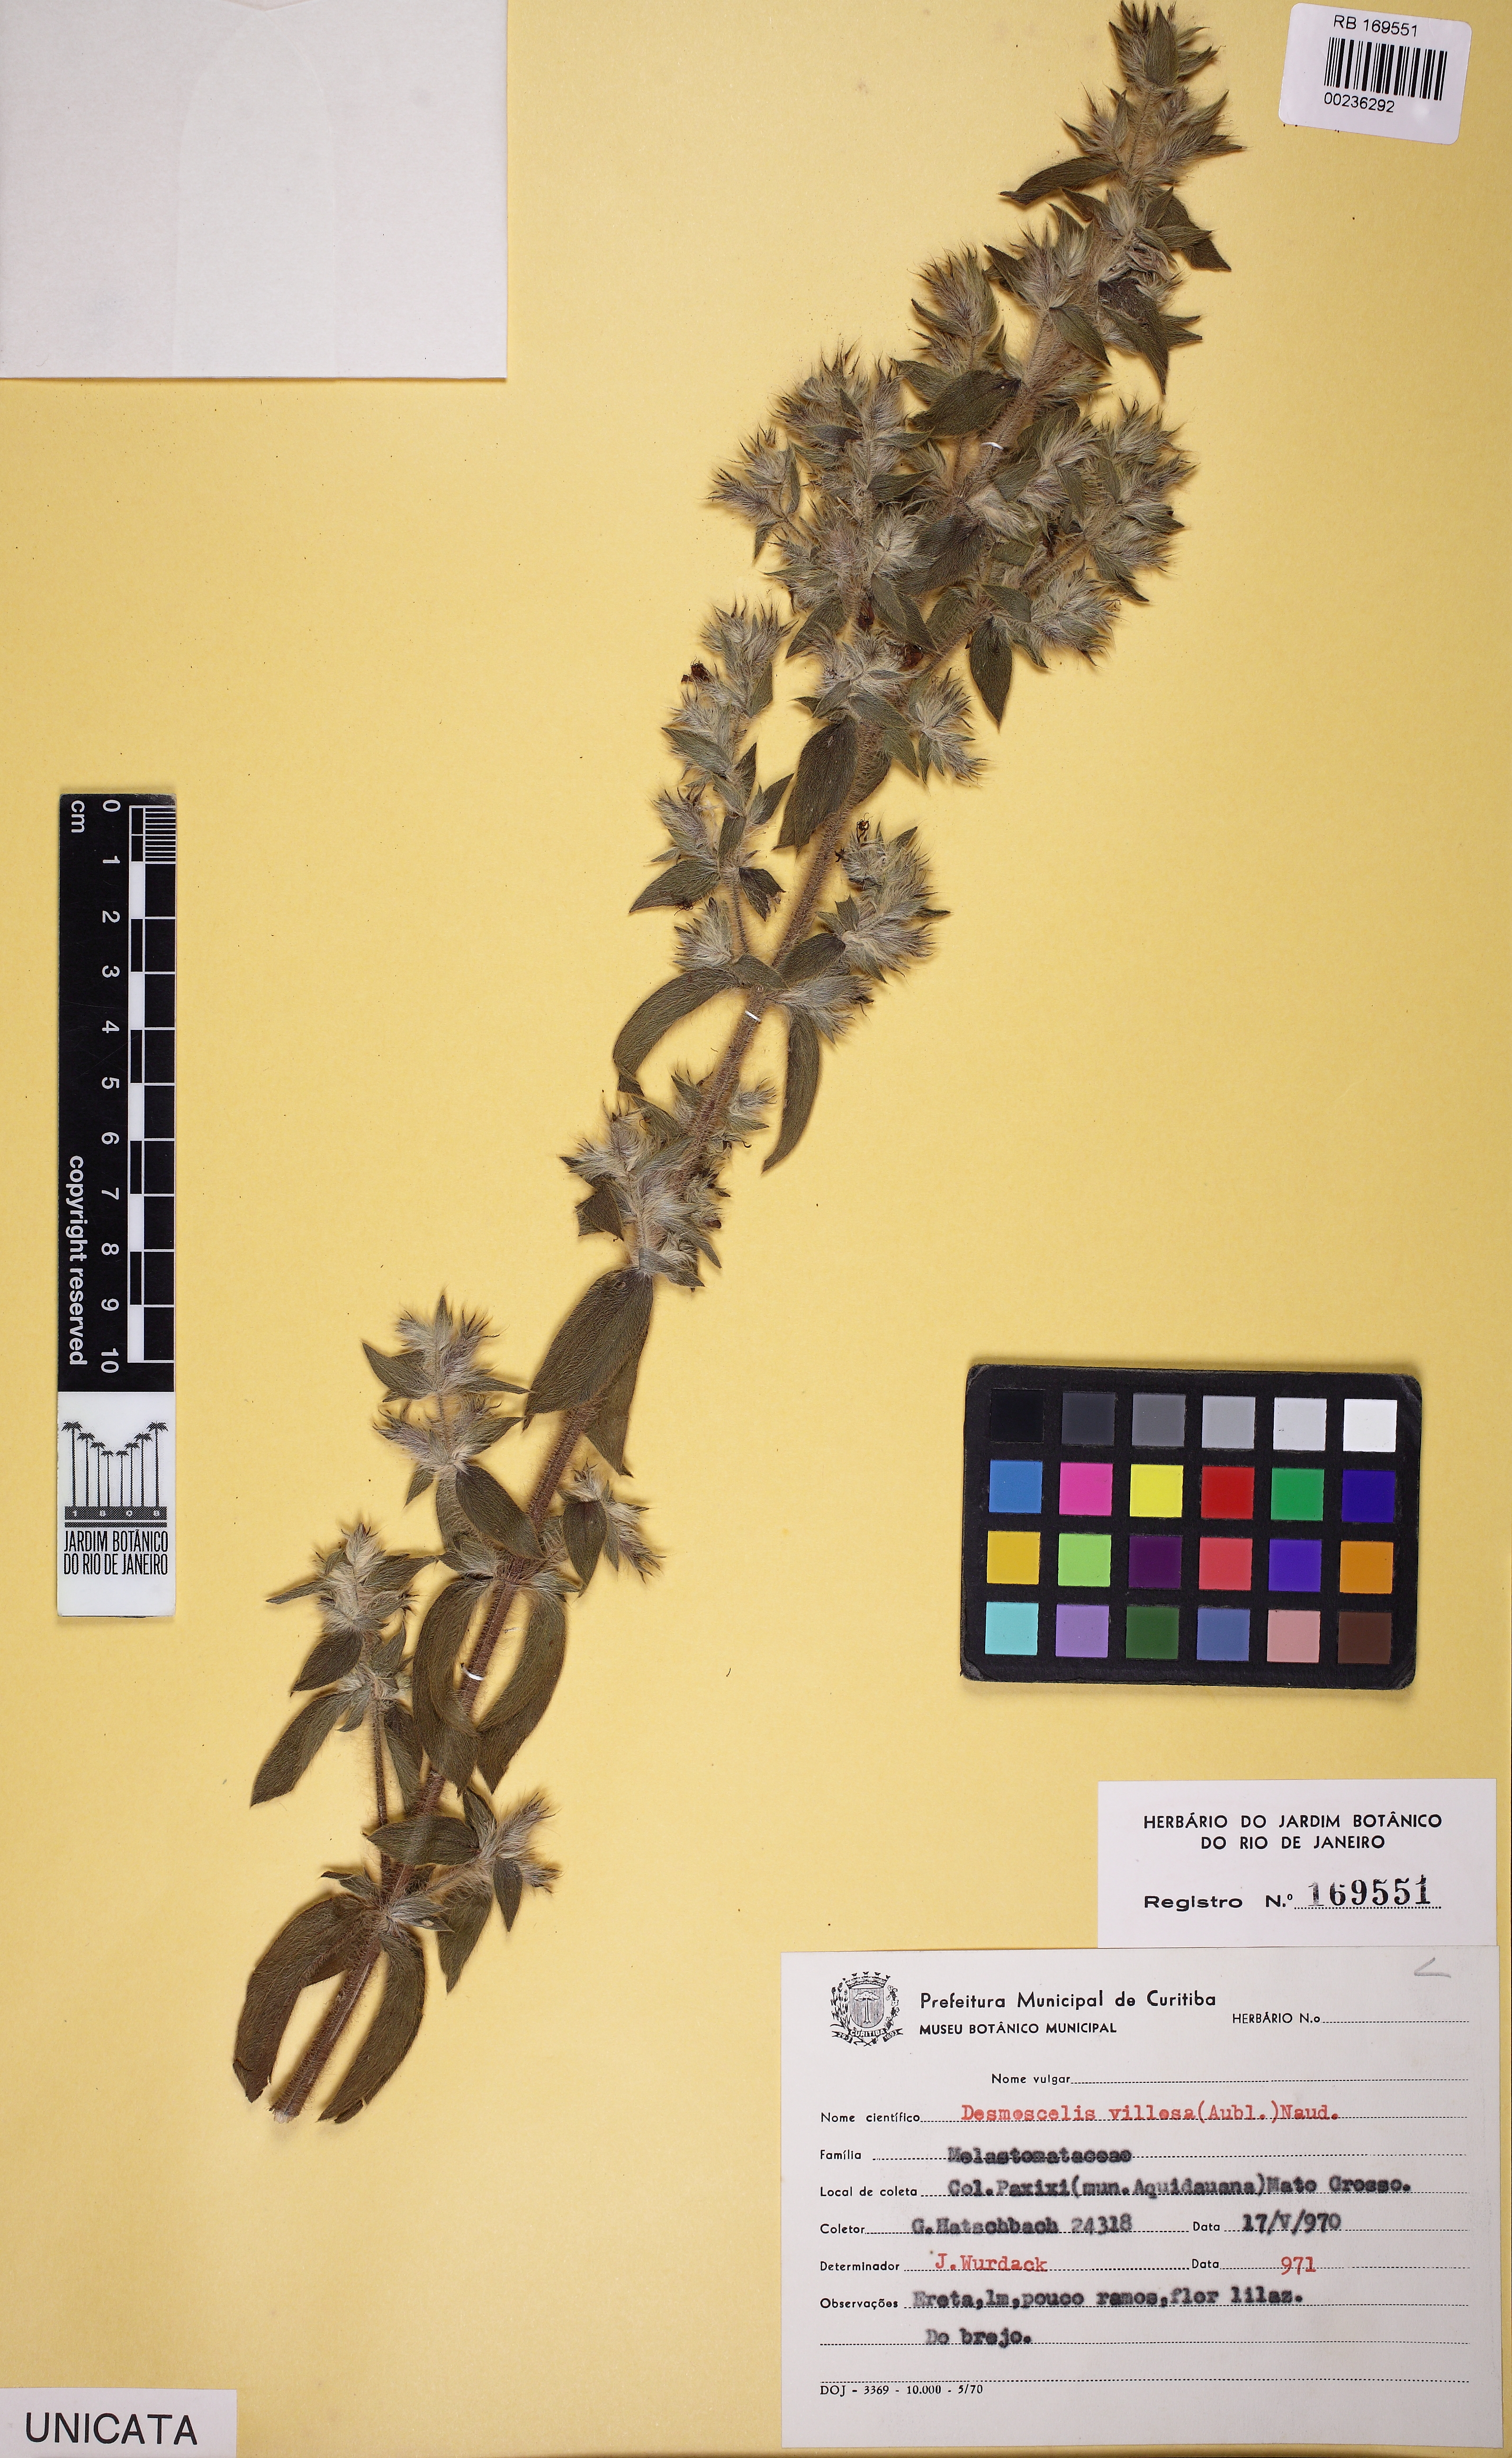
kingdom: Plantae
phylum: Tracheophyta
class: Magnoliopsida
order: Myrtales
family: Melastomataceae
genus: Desmoscelis
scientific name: Desmoscelis villosa
